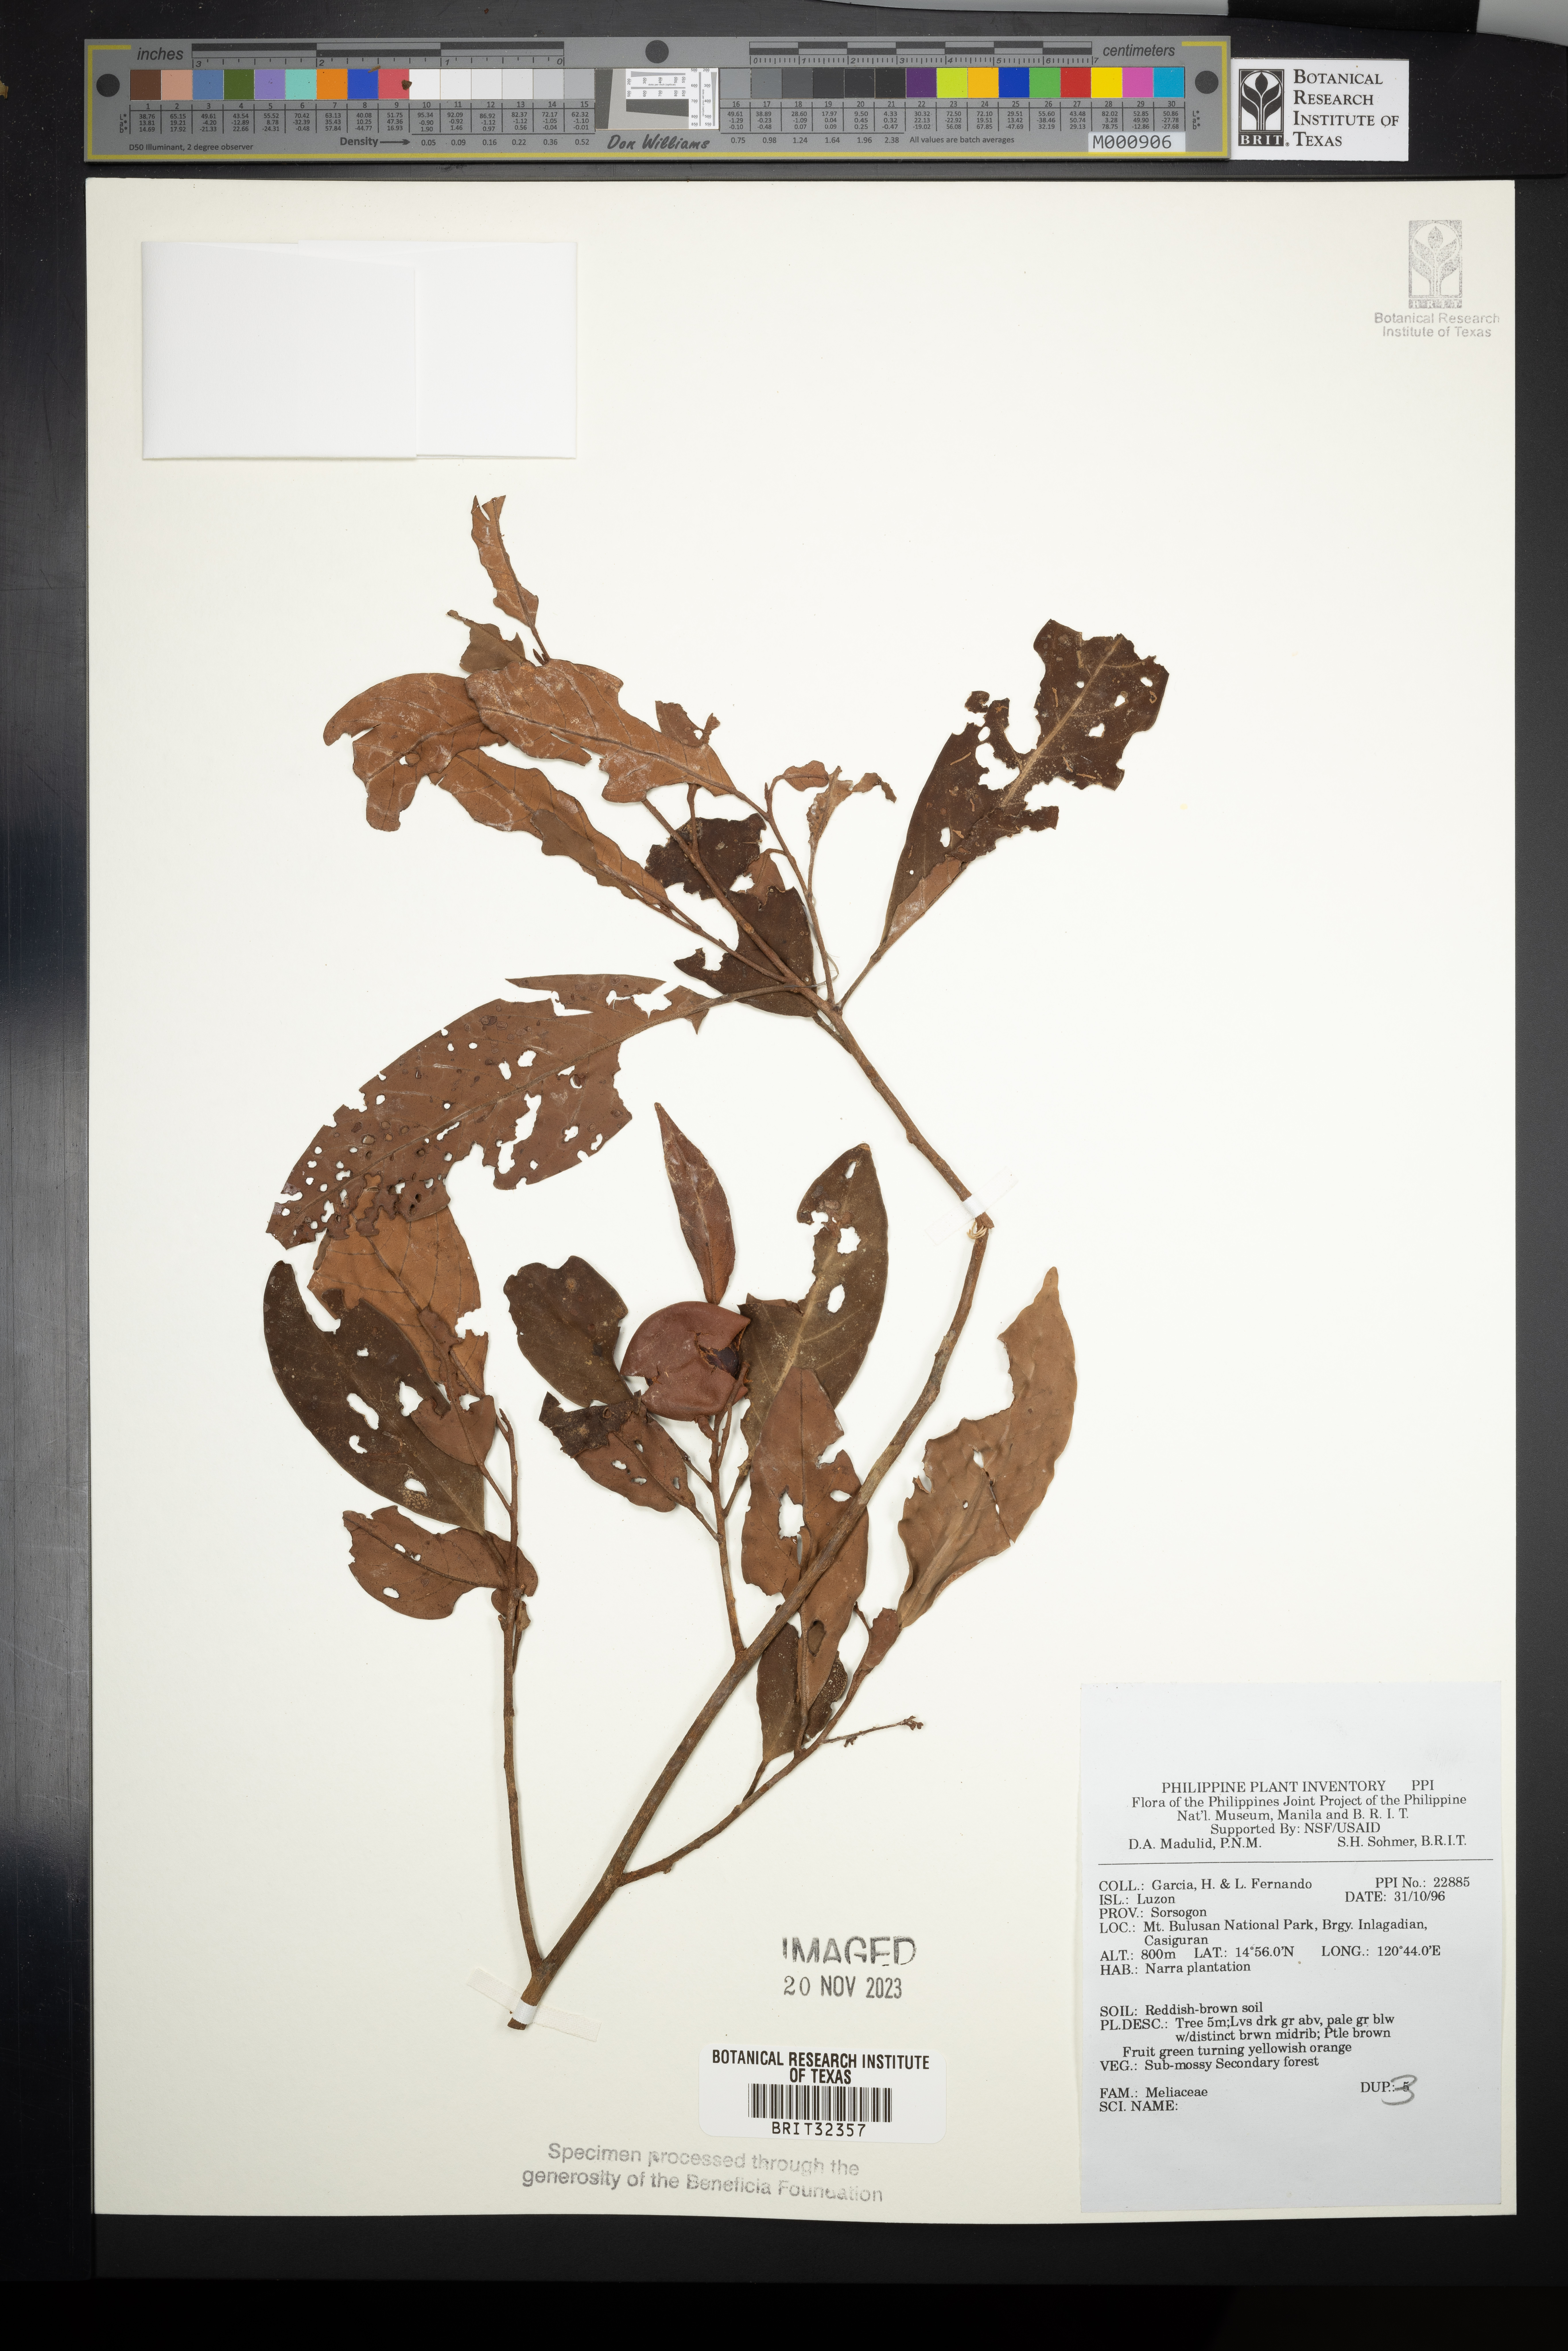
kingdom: Plantae
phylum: Tracheophyta
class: Magnoliopsida
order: Sapindales
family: Meliaceae
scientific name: Meliaceae
